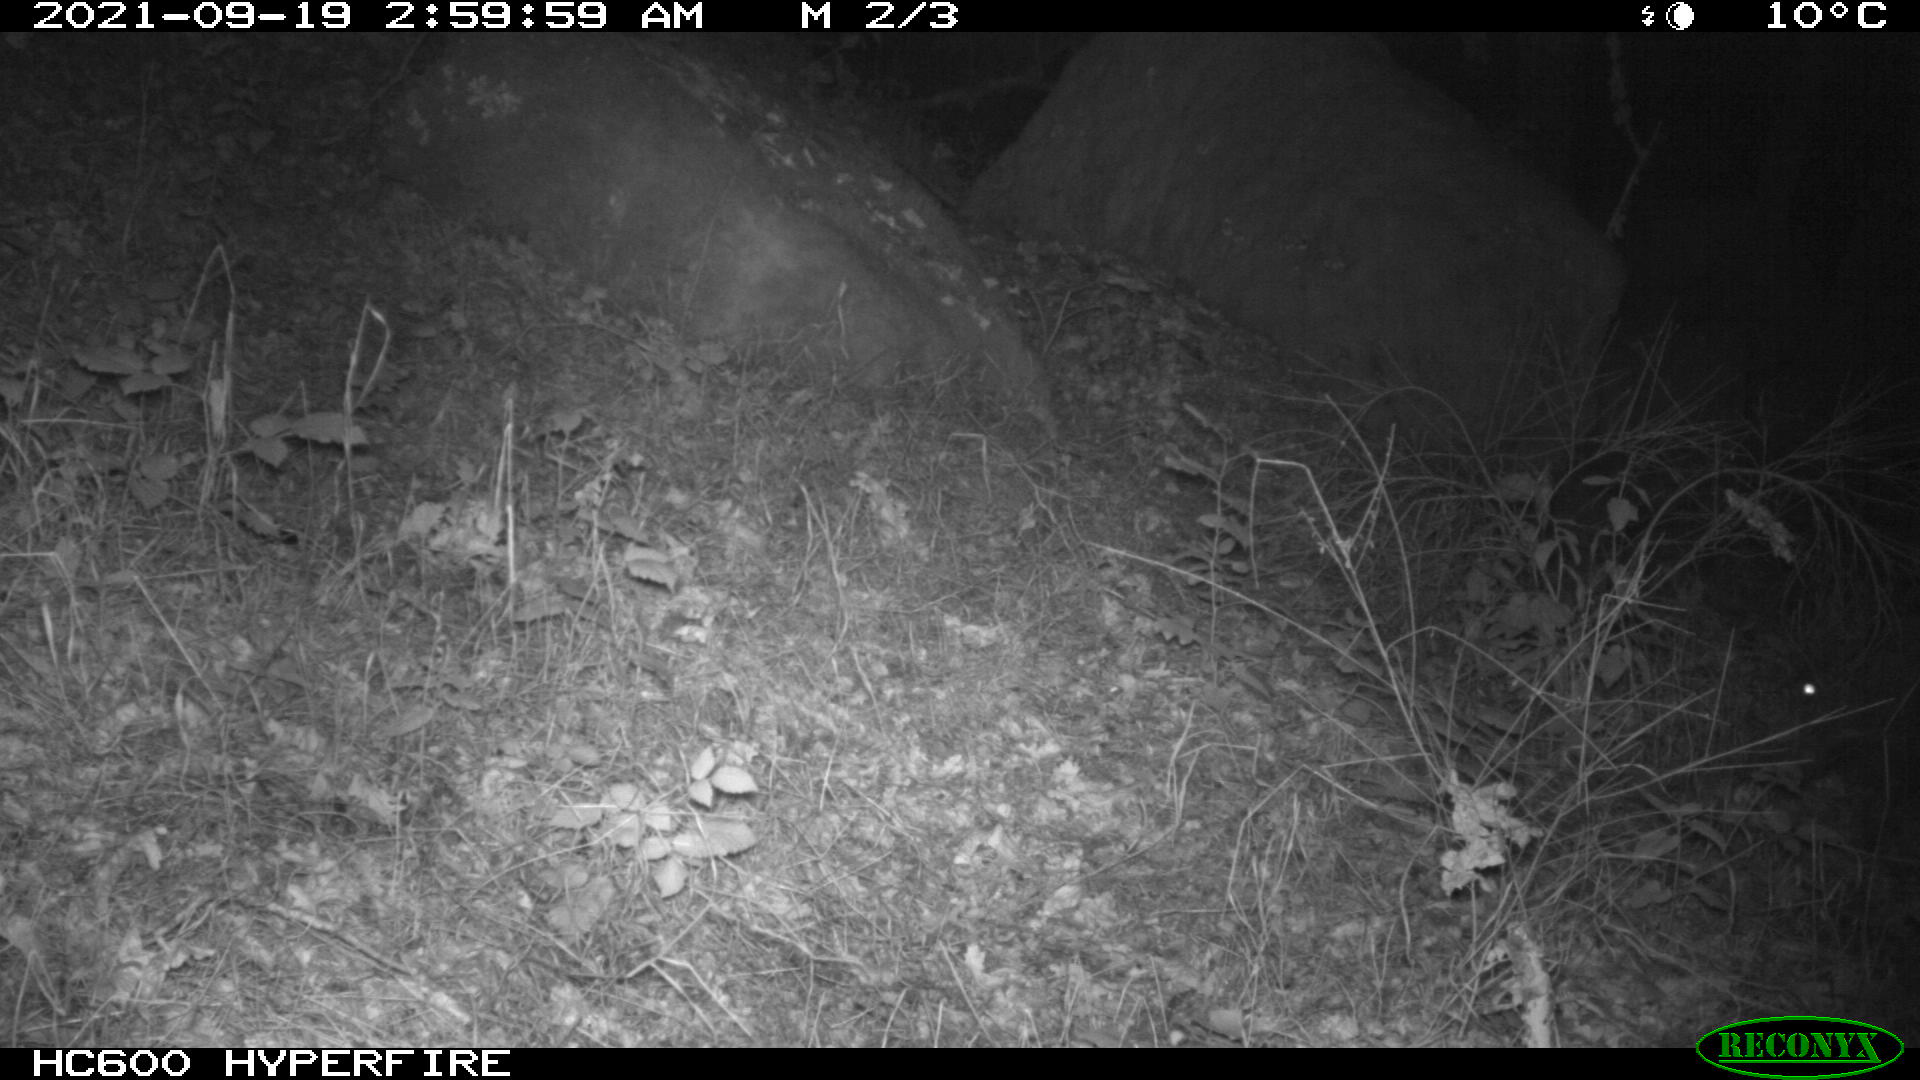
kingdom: Animalia
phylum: Chordata
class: Mammalia
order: Artiodactyla
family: Suidae
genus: Sus
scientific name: Sus scrofa
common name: Wild boar
